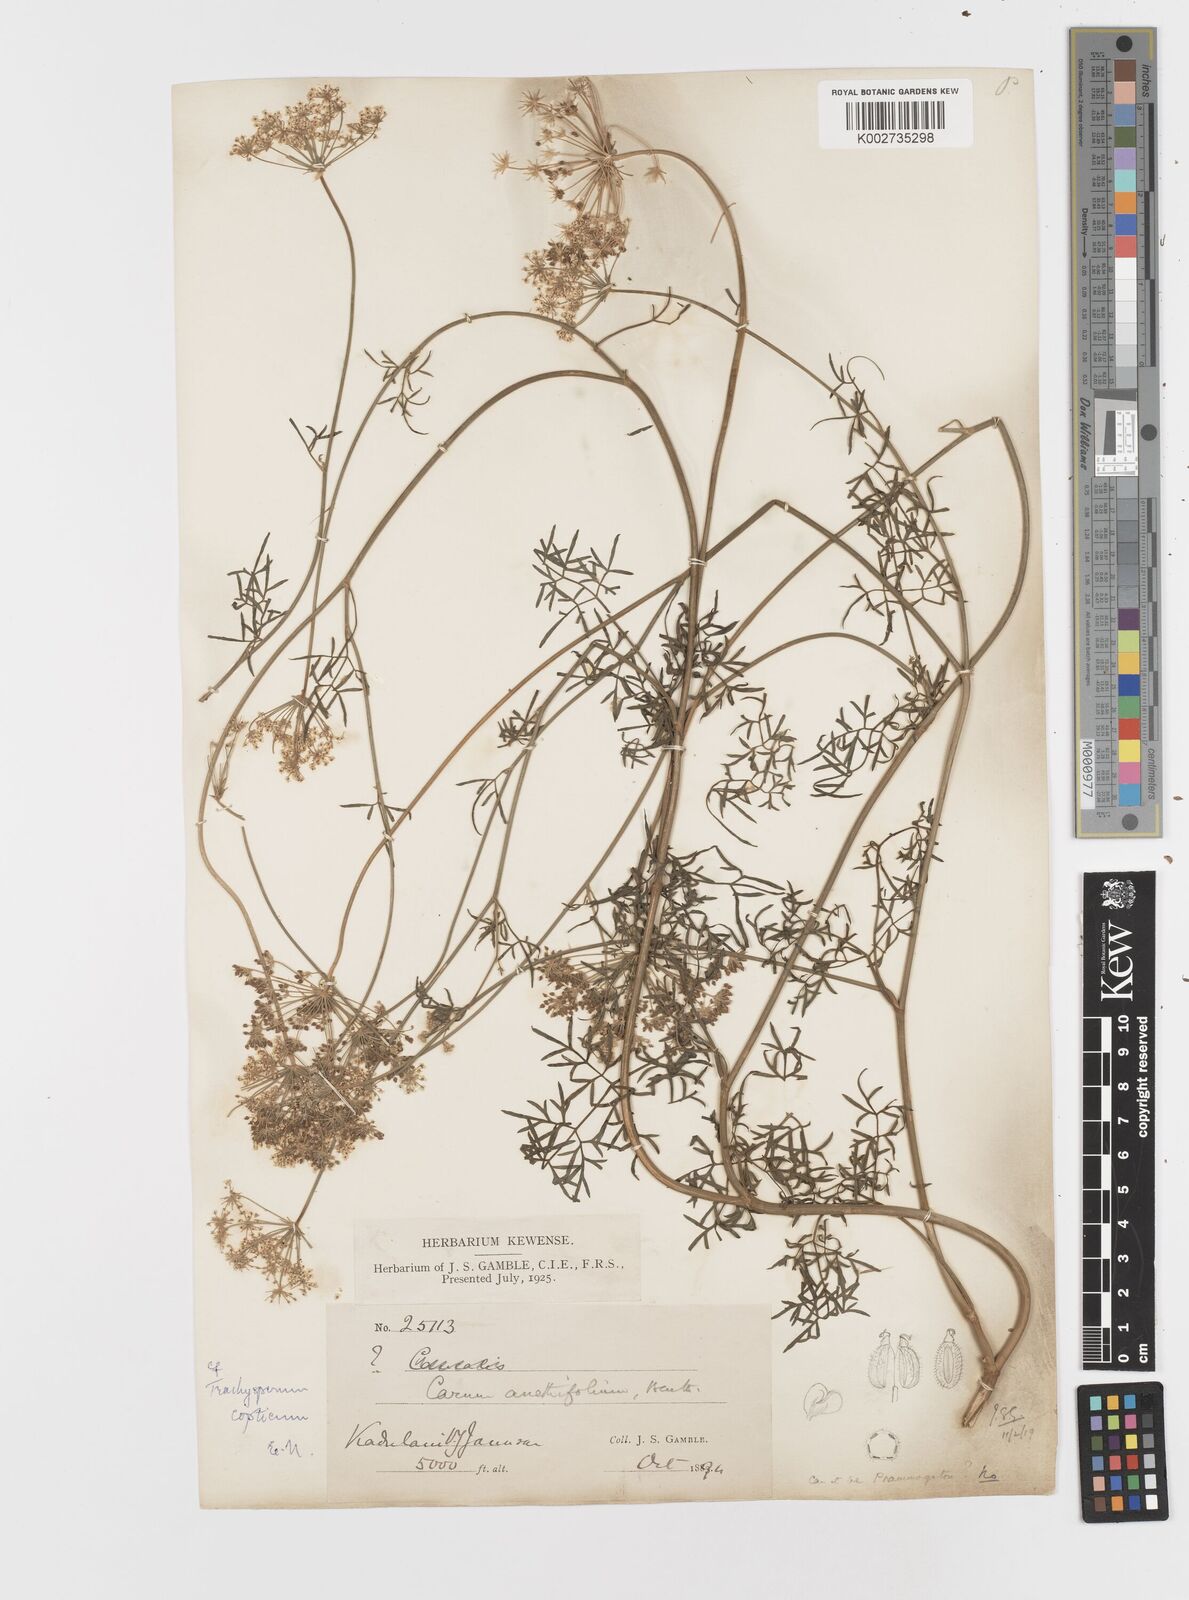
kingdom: Plantae
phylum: Tracheophyta
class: Magnoliopsida
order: Apiales
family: Apiaceae
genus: Psammogeton
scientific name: Psammogeton anethifolium
